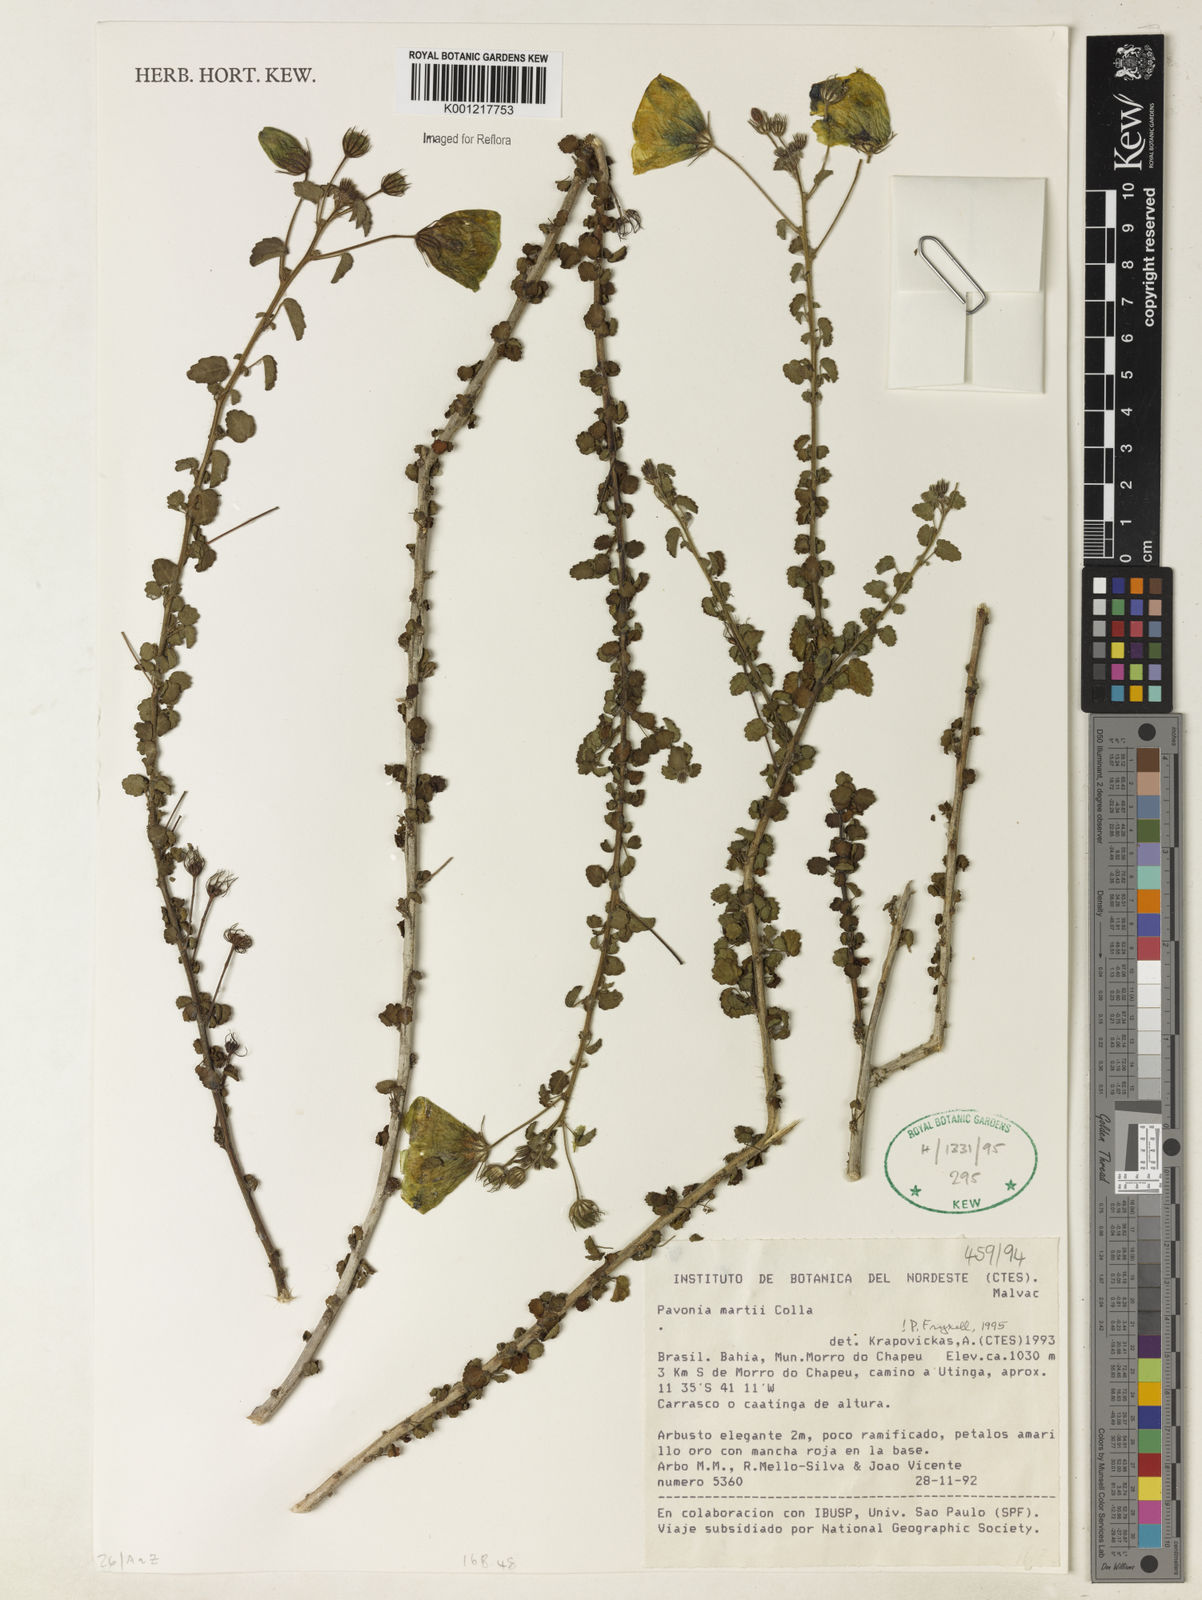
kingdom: Plantae
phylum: Tracheophyta
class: Magnoliopsida
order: Malvales
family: Malvaceae
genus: Pavonia
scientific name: Pavonia martii
